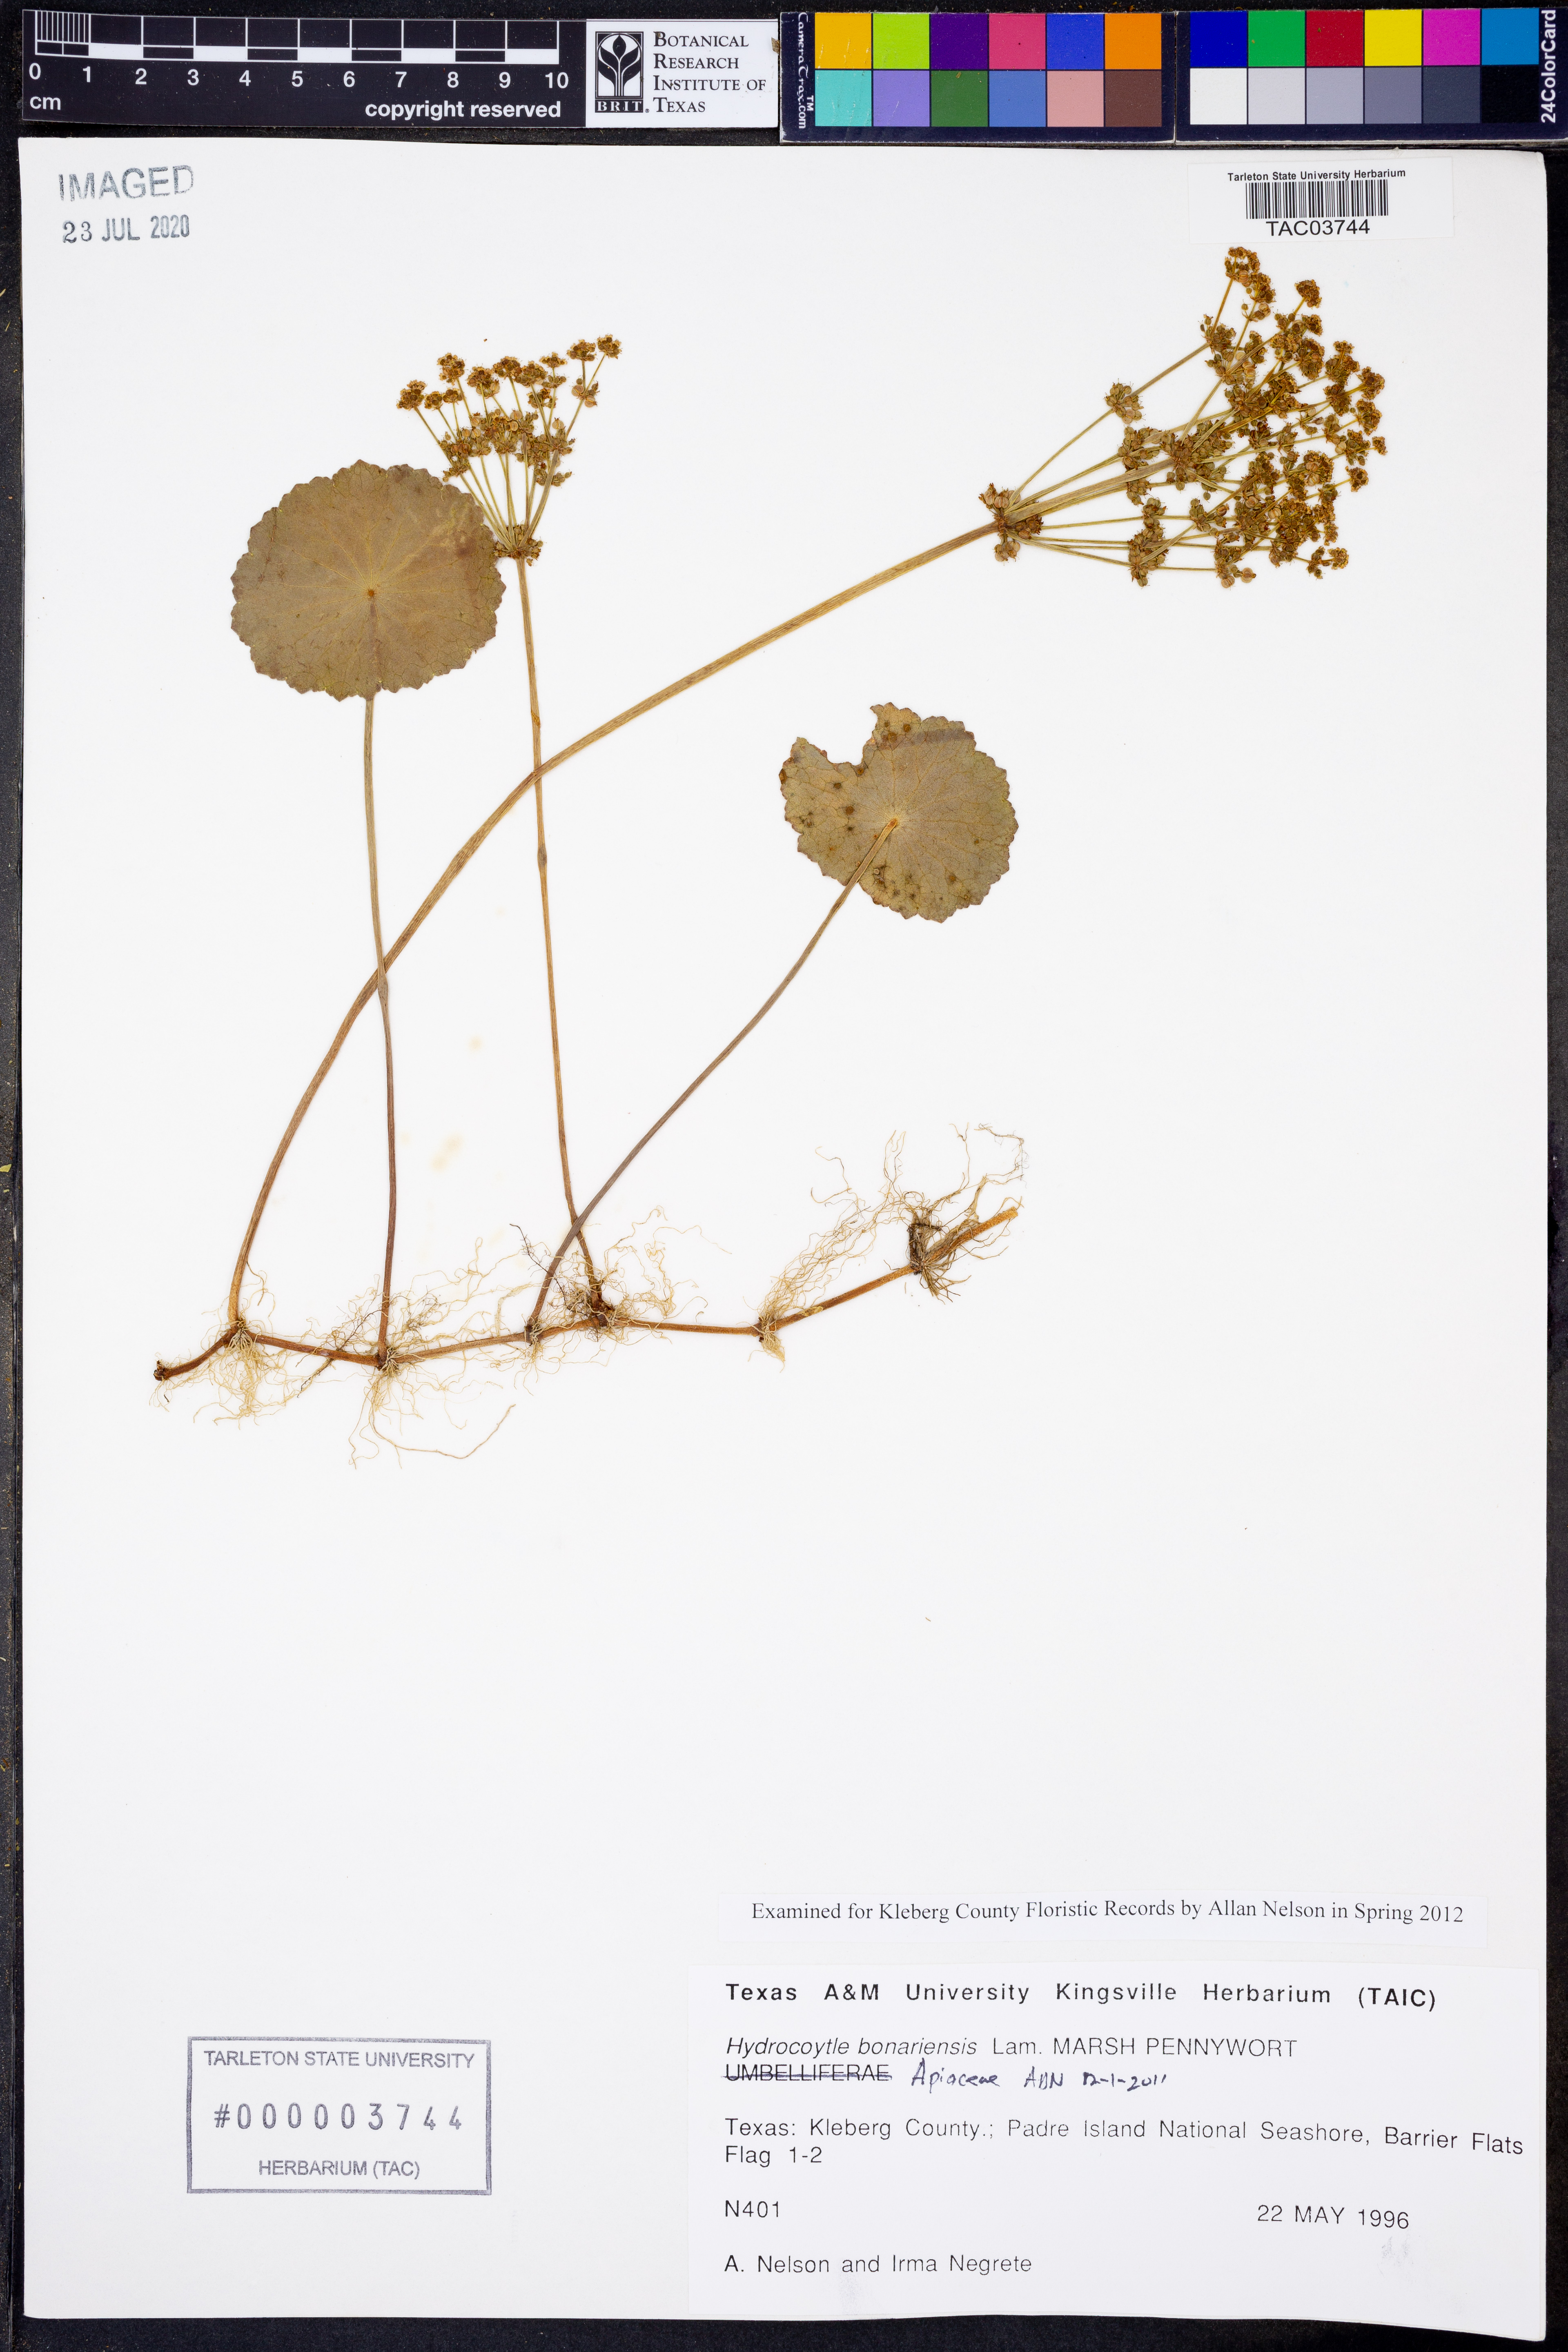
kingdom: Plantae
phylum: Tracheophyta
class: Magnoliopsida
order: Apiales
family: Araliaceae
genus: Hydrocotyle
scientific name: Hydrocotyle bonariensis
